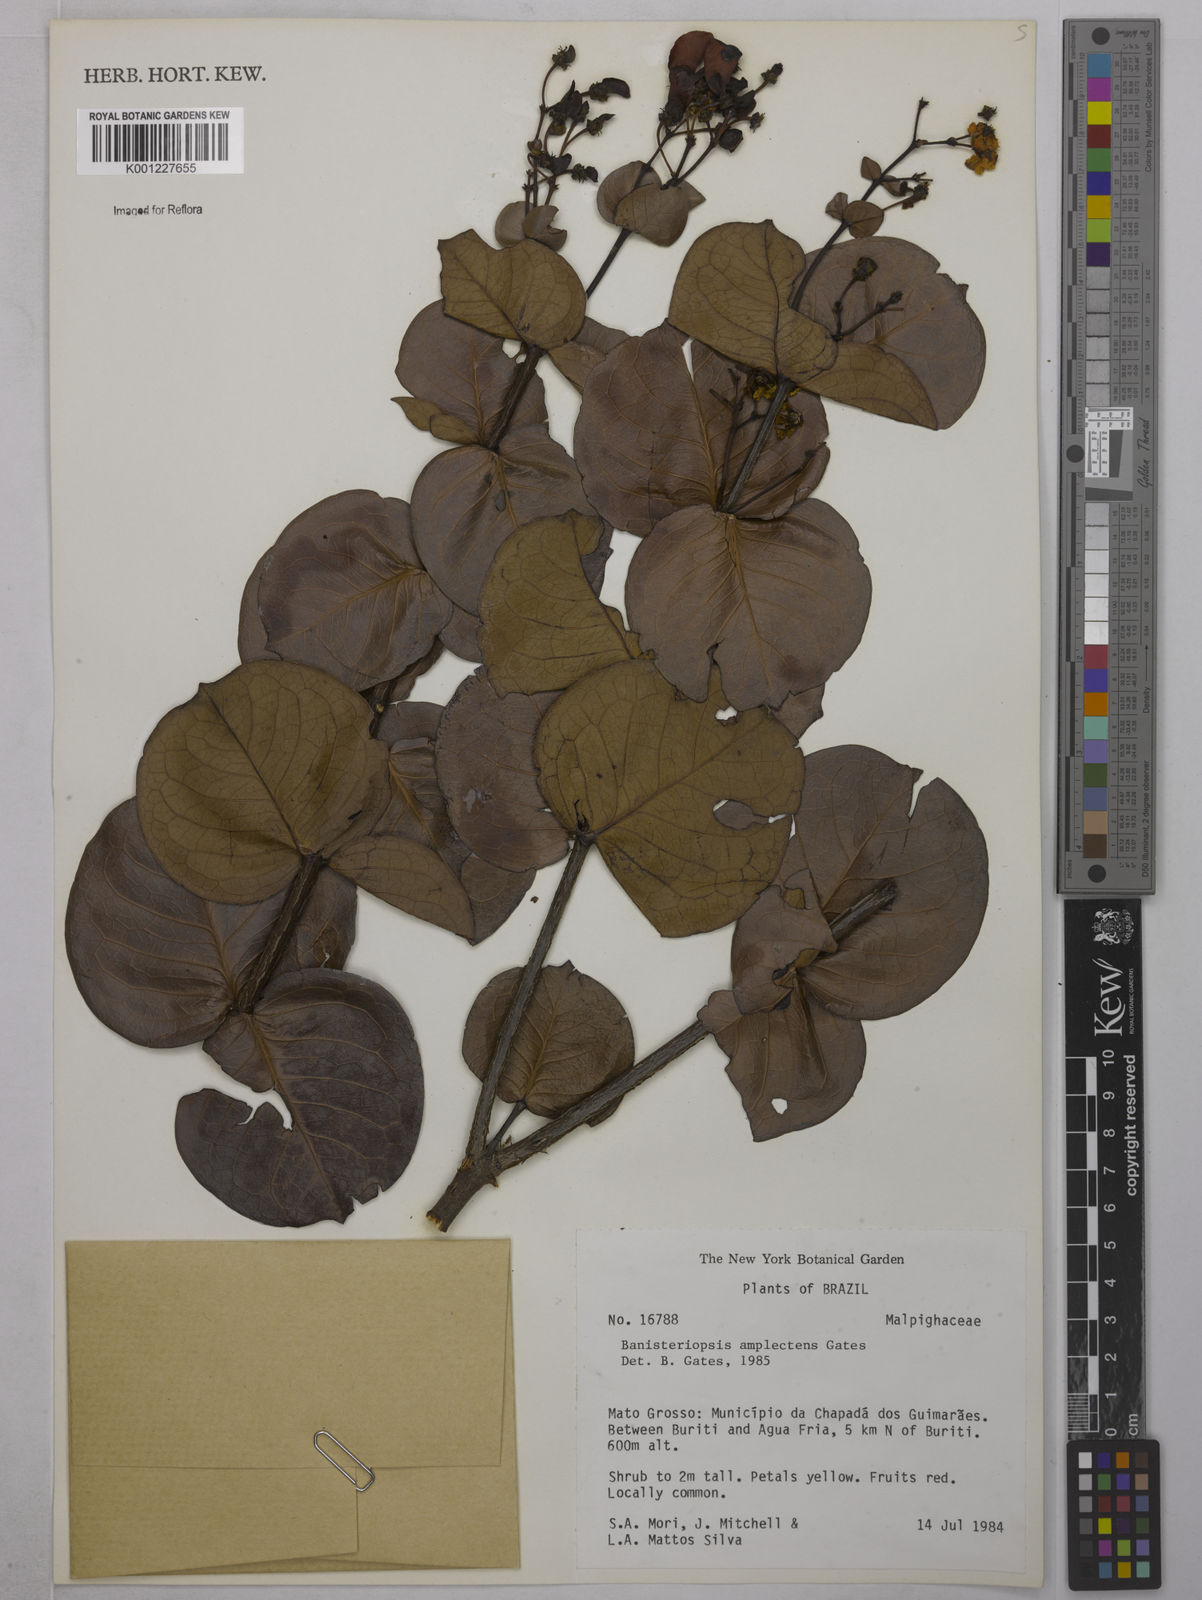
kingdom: Plantae
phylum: Tracheophyta
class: Magnoliopsida
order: Malpighiales
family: Malpighiaceae
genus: Diplopterys
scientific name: Diplopterys amplectens
